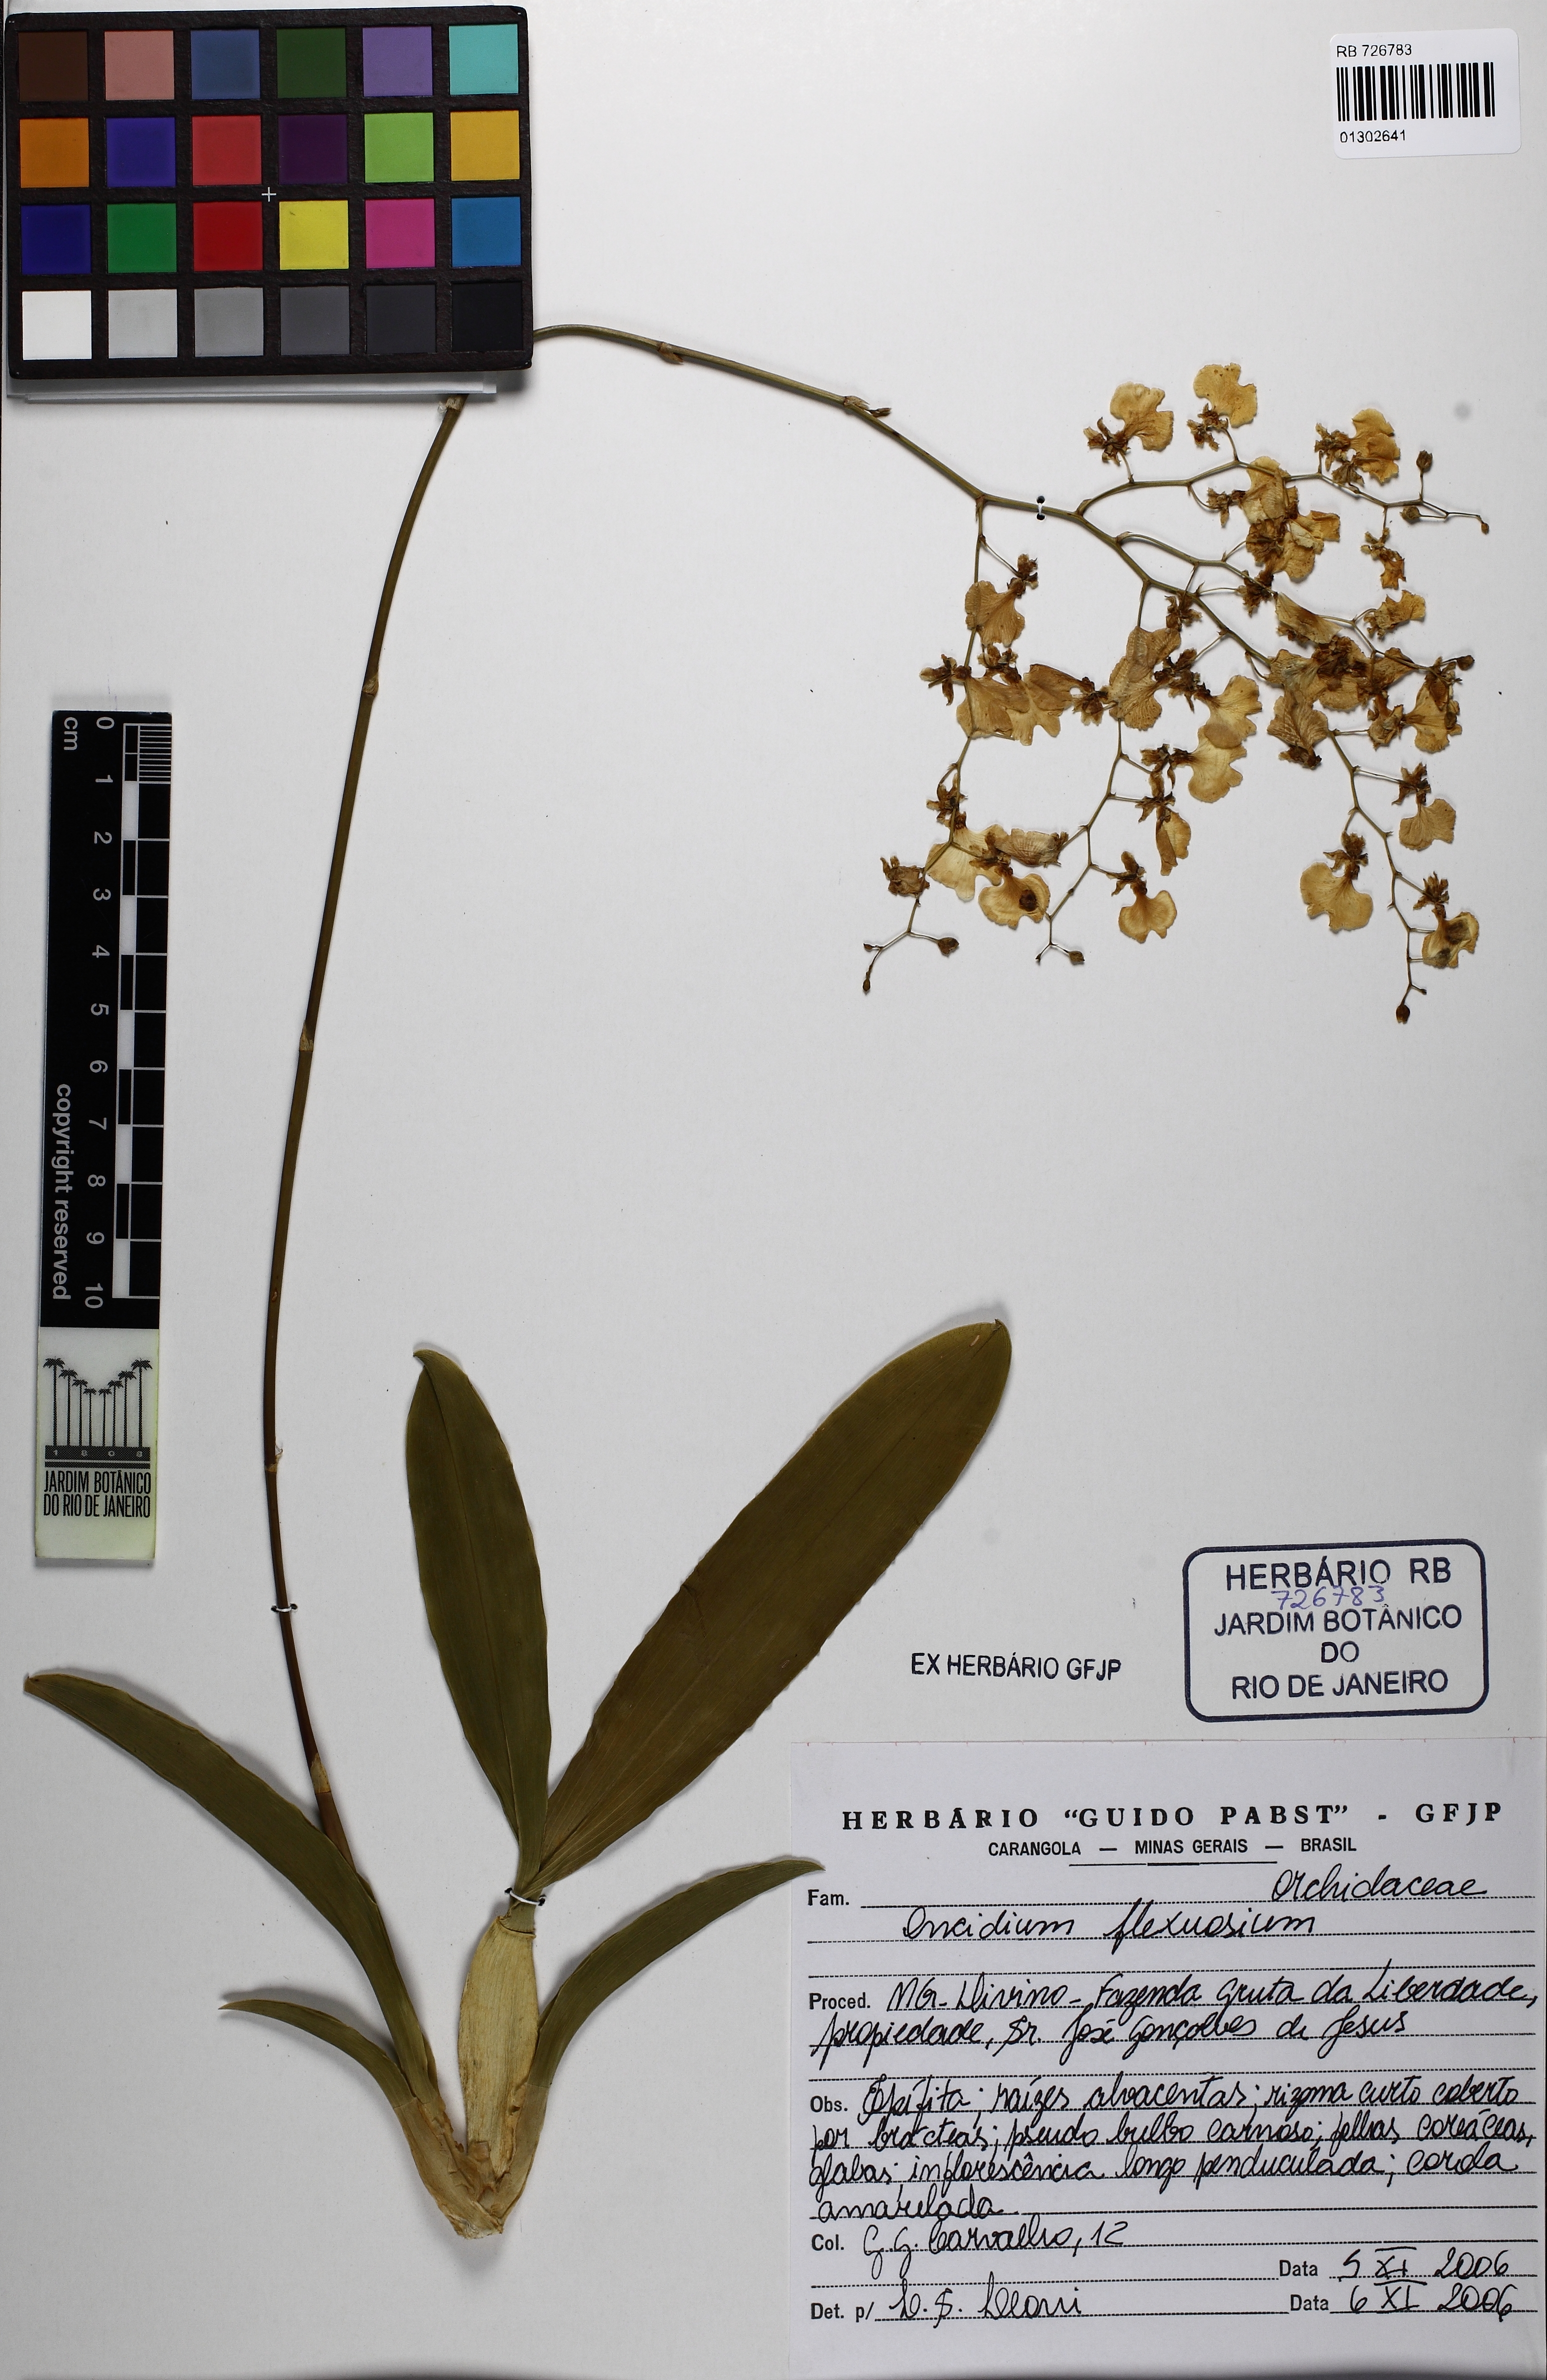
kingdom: Plantae
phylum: Tracheophyta
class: Liliopsida
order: Asparagales
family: Orchidaceae
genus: Gomesa
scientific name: Gomesa flexuosa
